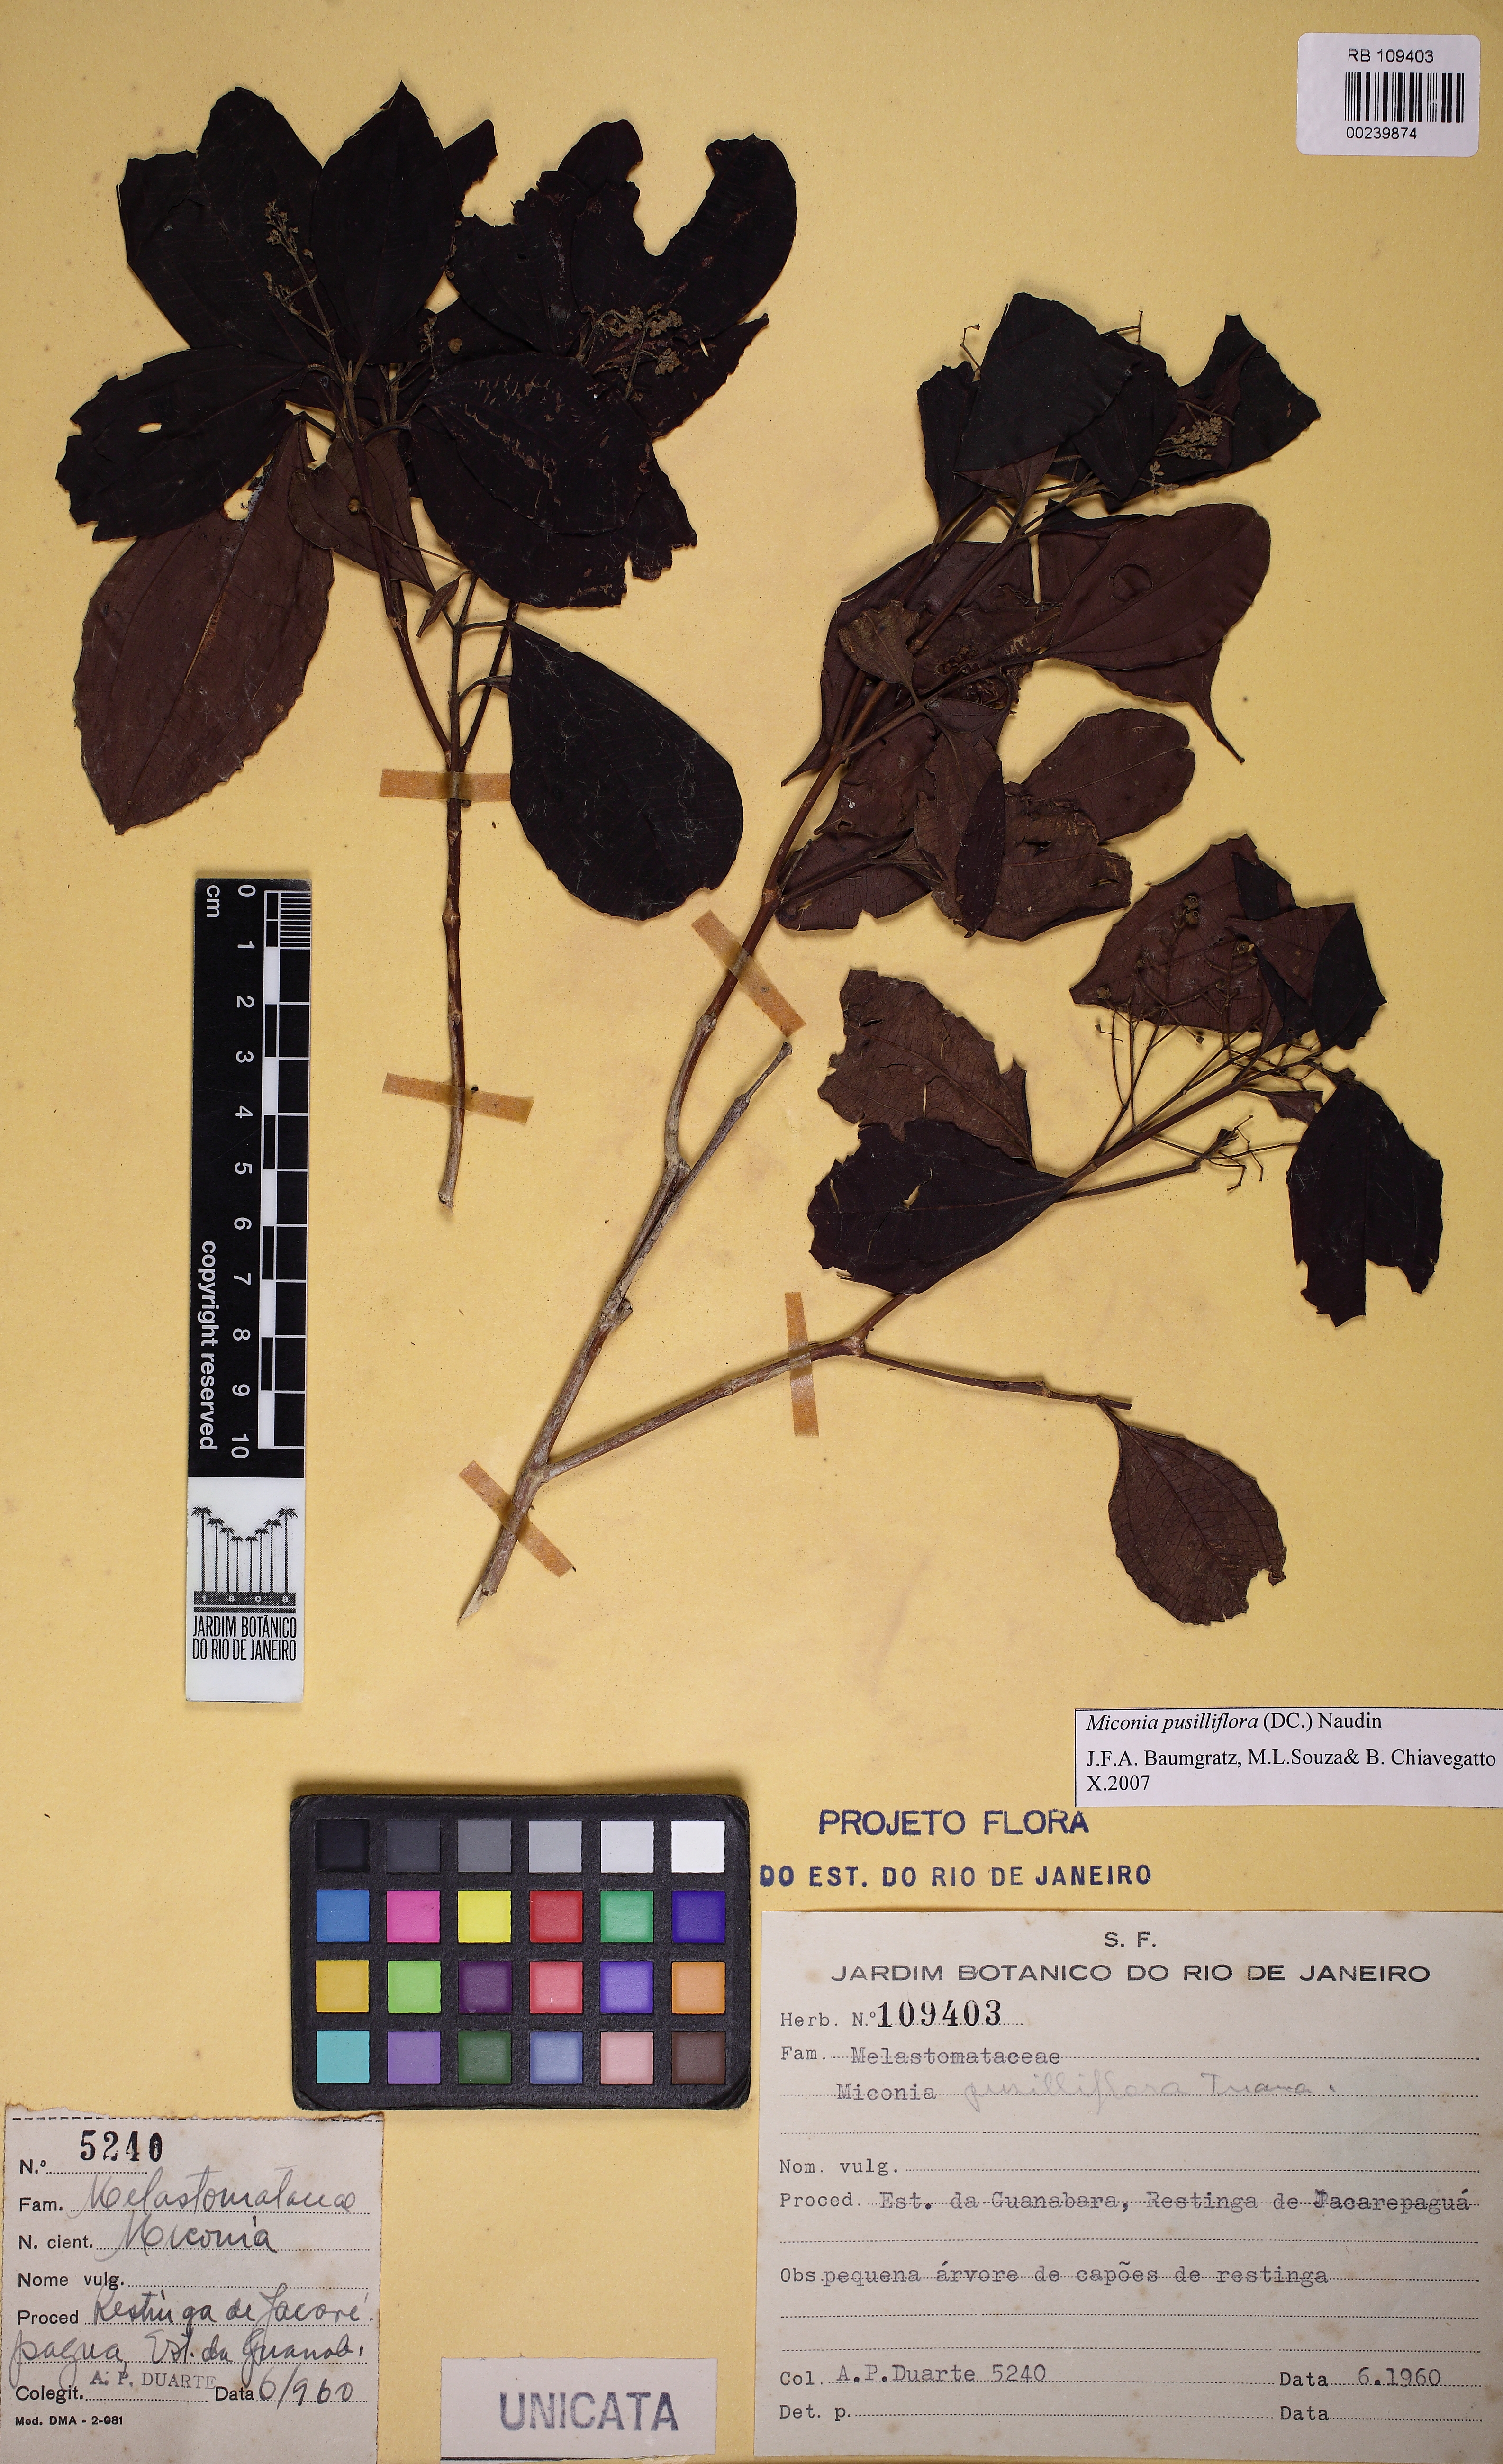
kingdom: Plantae
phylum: Tracheophyta
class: Magnoliopsida
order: Myrtales
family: Melastomataceae
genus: Miconia
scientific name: Miconia pusilliflora
